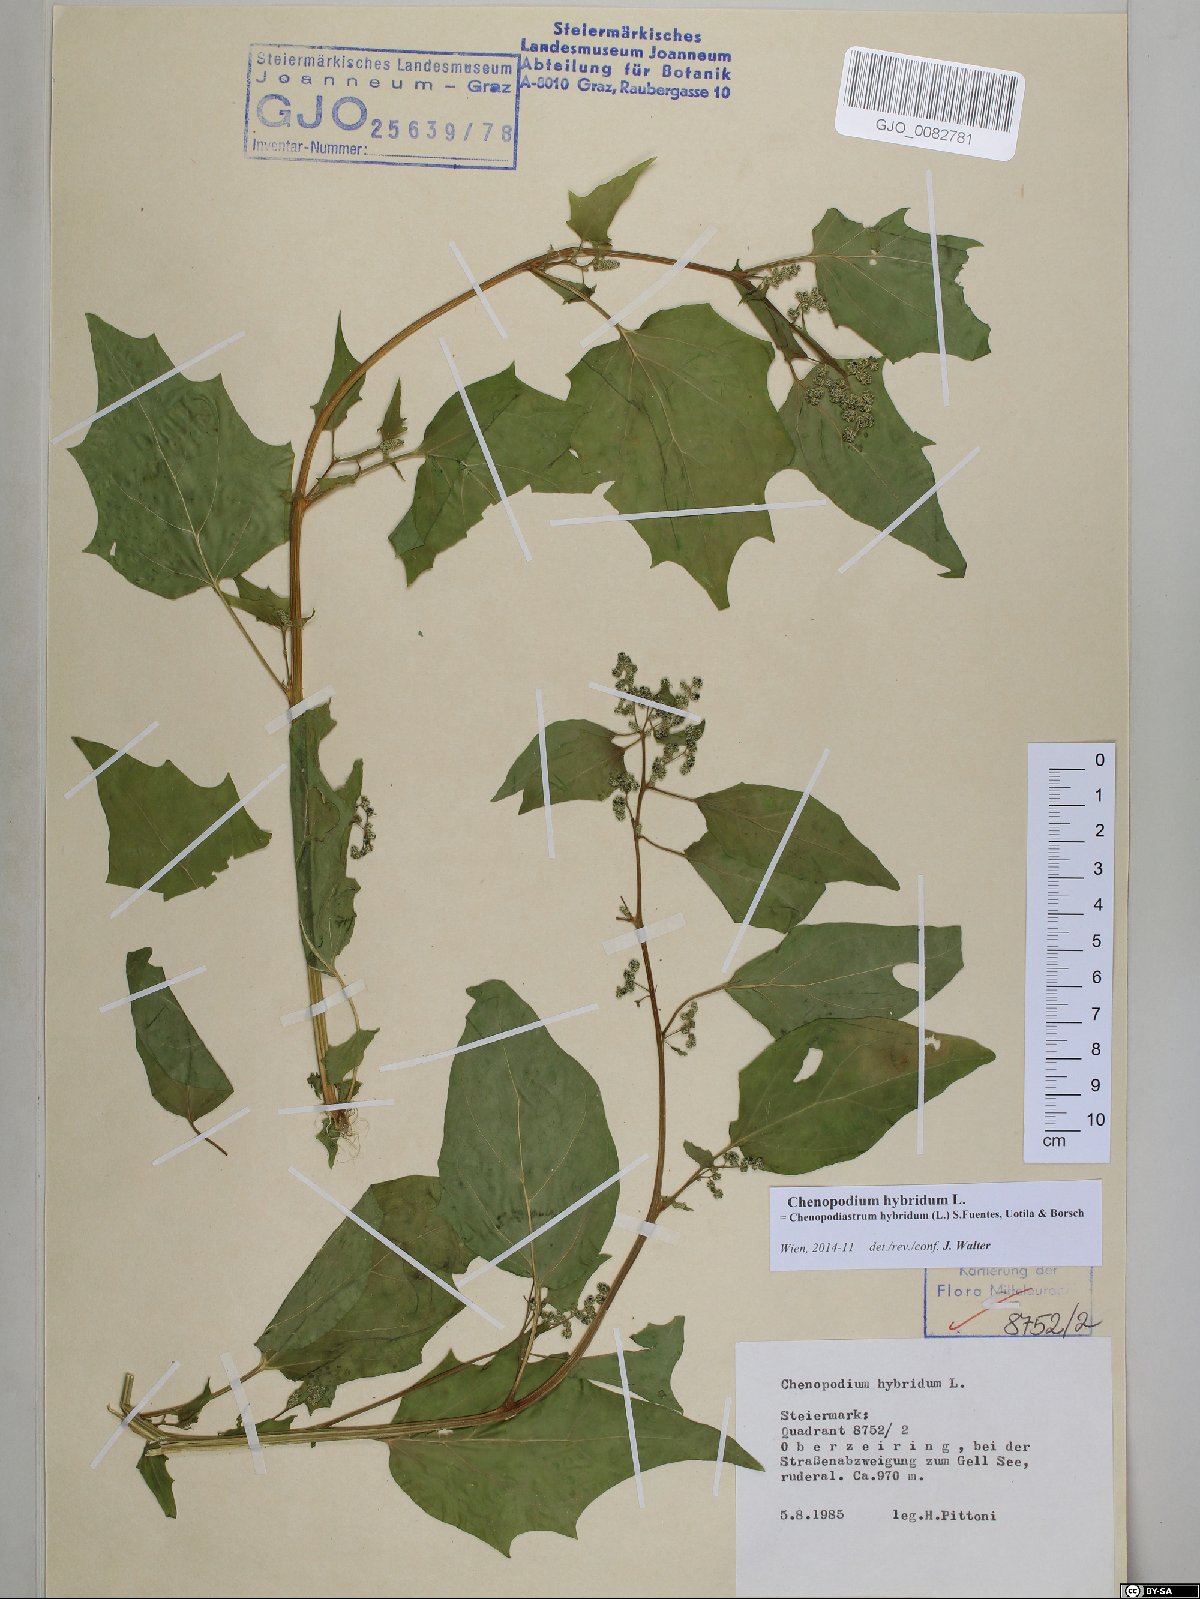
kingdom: Plantae
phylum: Tracheophyta
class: Magnoliopsida
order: Caryophyllales
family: Amaranthaceae
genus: Chenopodiastrum
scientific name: Chenopodiastrum hybridum
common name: Mapleleaf goosefoot
